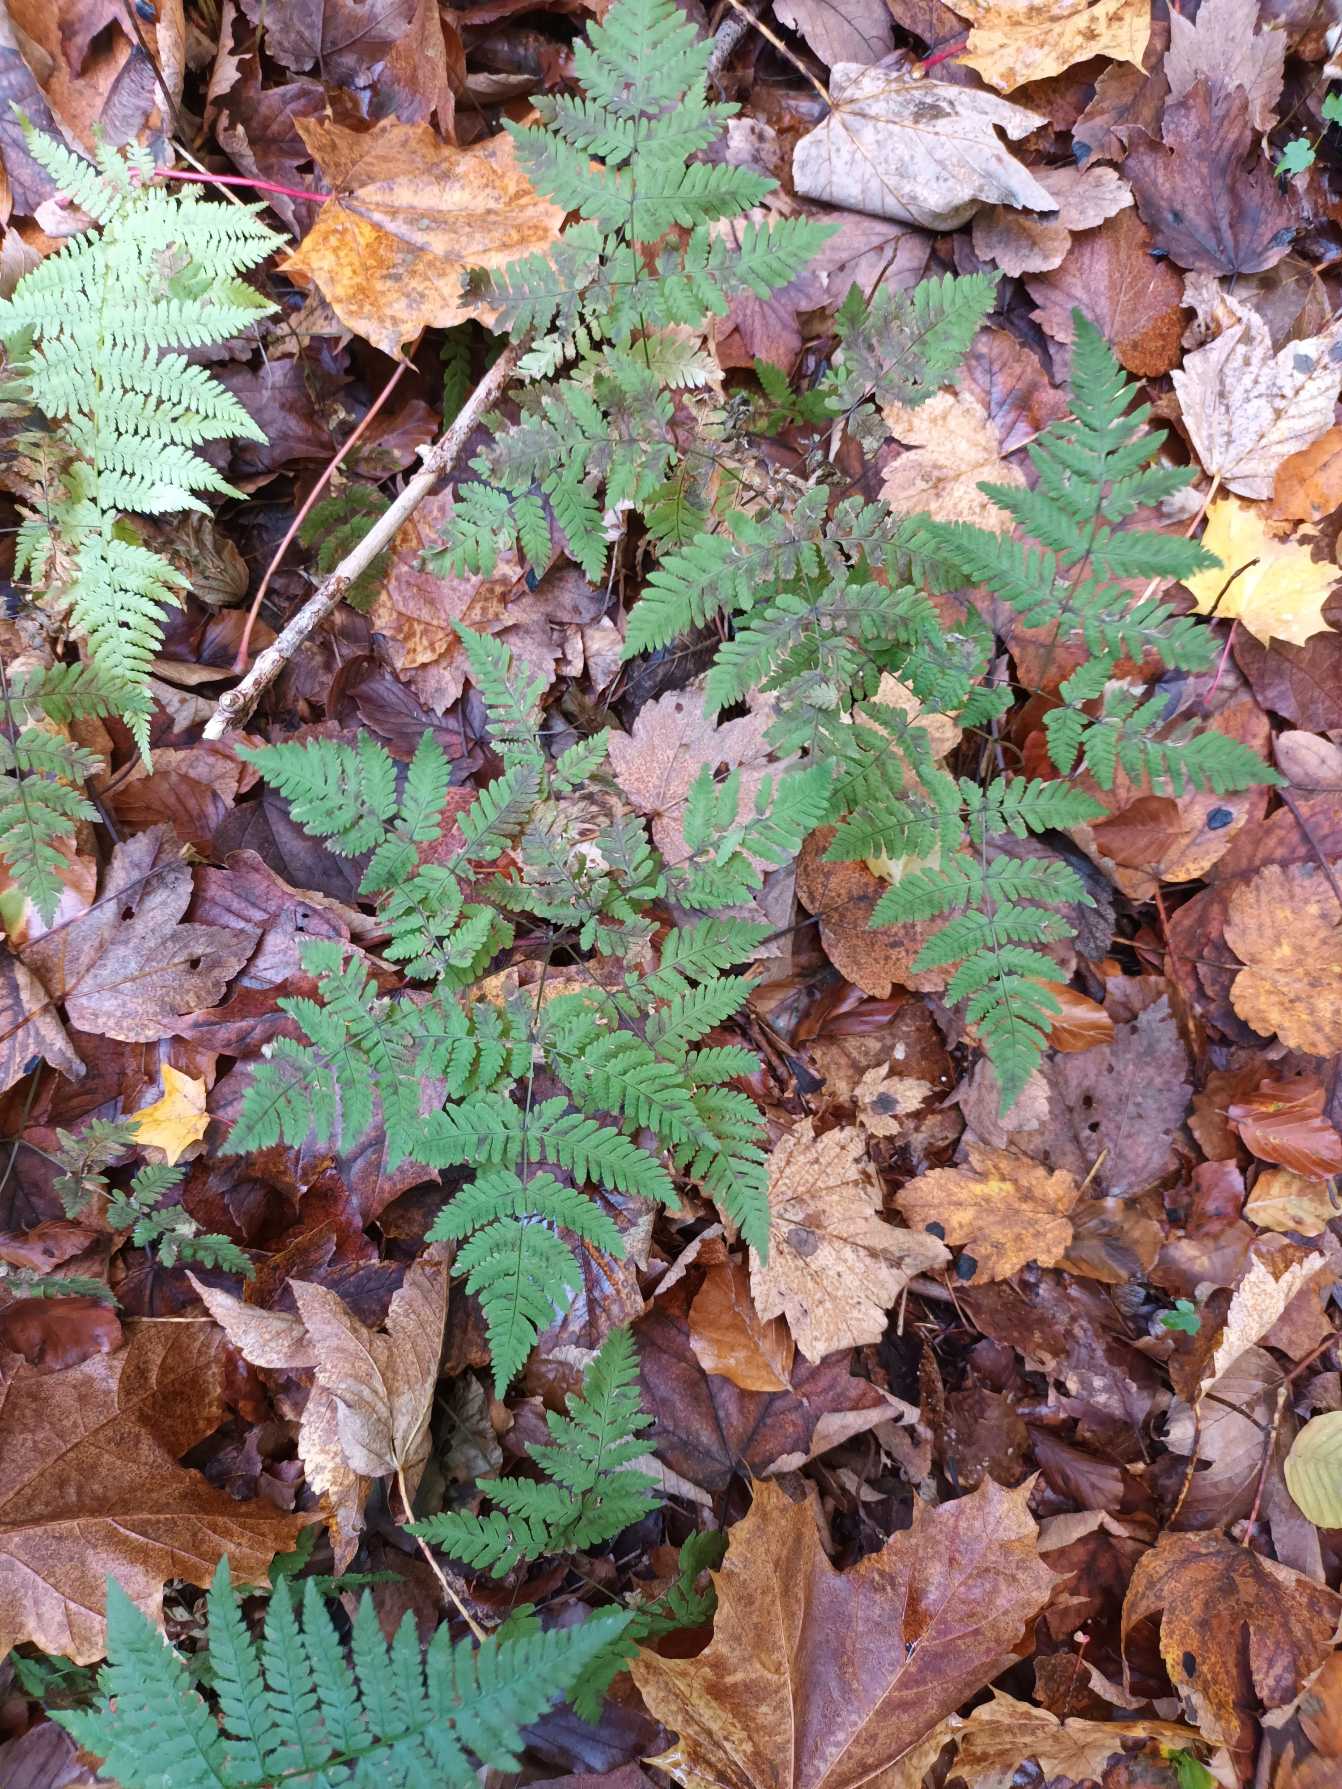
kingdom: Plantae
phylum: Tracheophyta
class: Polypodiopsida
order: Polypodiales
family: Cystopteridaceae
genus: Gymnocarpium
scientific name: Gymnocarpium dryopteris
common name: Tredelt egebregne
